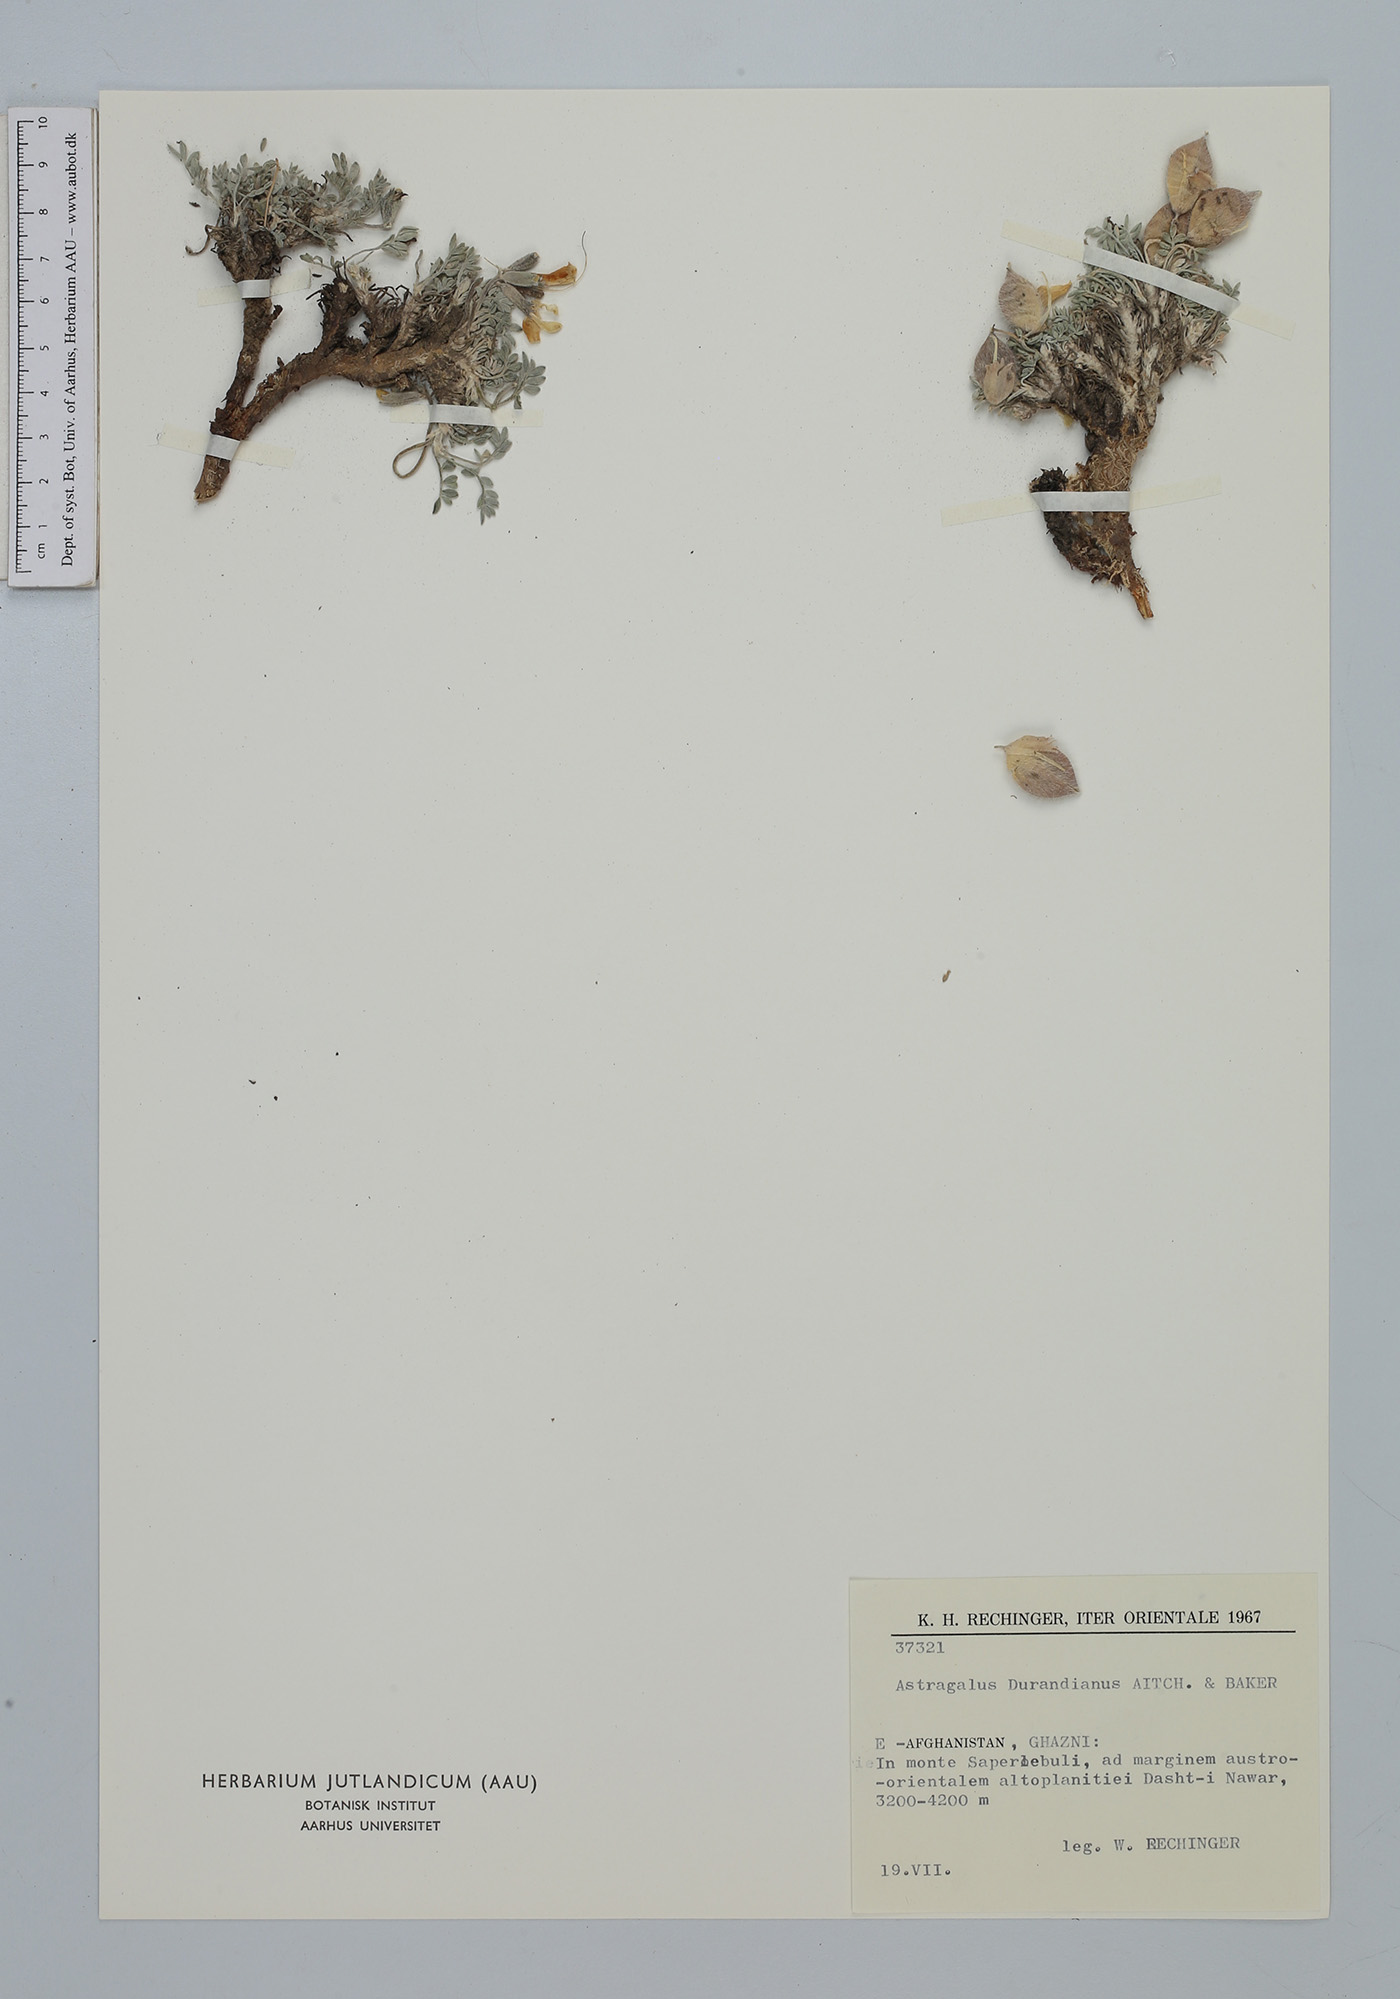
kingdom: Plantae
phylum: Tracheophyta
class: Magnoliopsida
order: Fabales
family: Fabaceae
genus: Astragalus
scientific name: Astragalus durandianus
